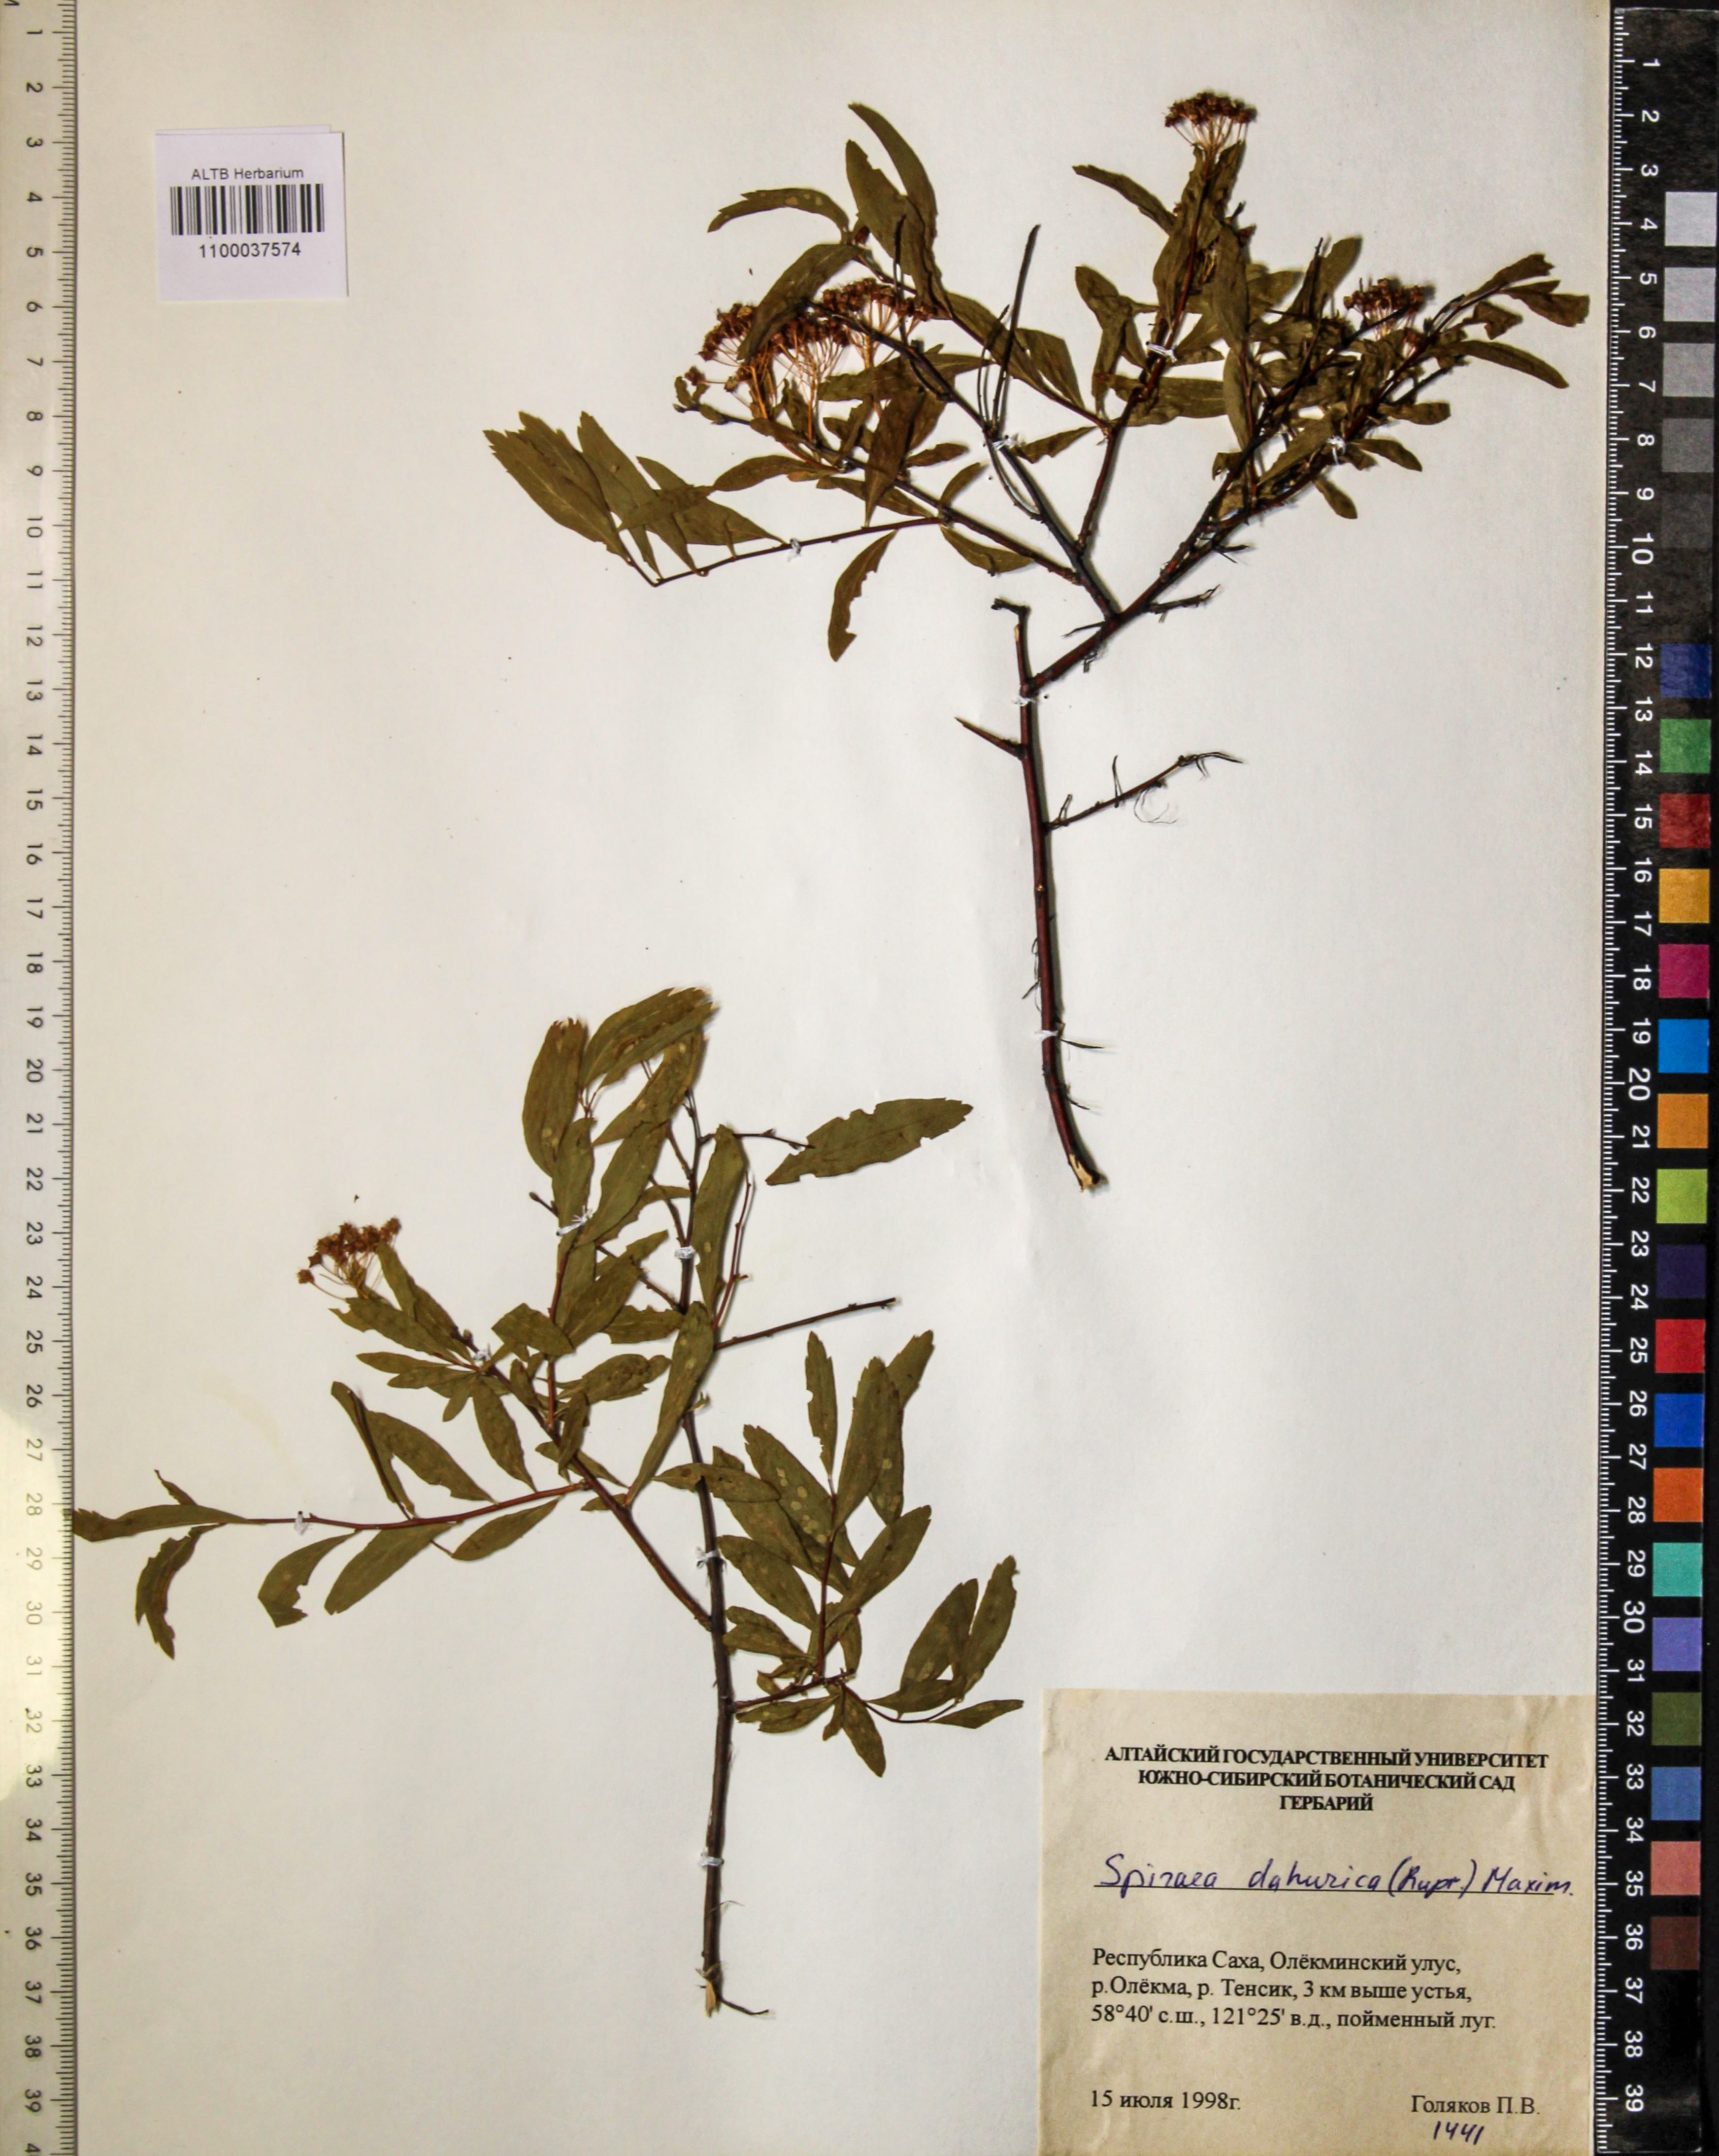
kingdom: Plantae
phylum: Tracheophyta
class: Magnoliopsida
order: Rosales
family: Rosaceae
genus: Spiraea
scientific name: Spiraea dahurica
